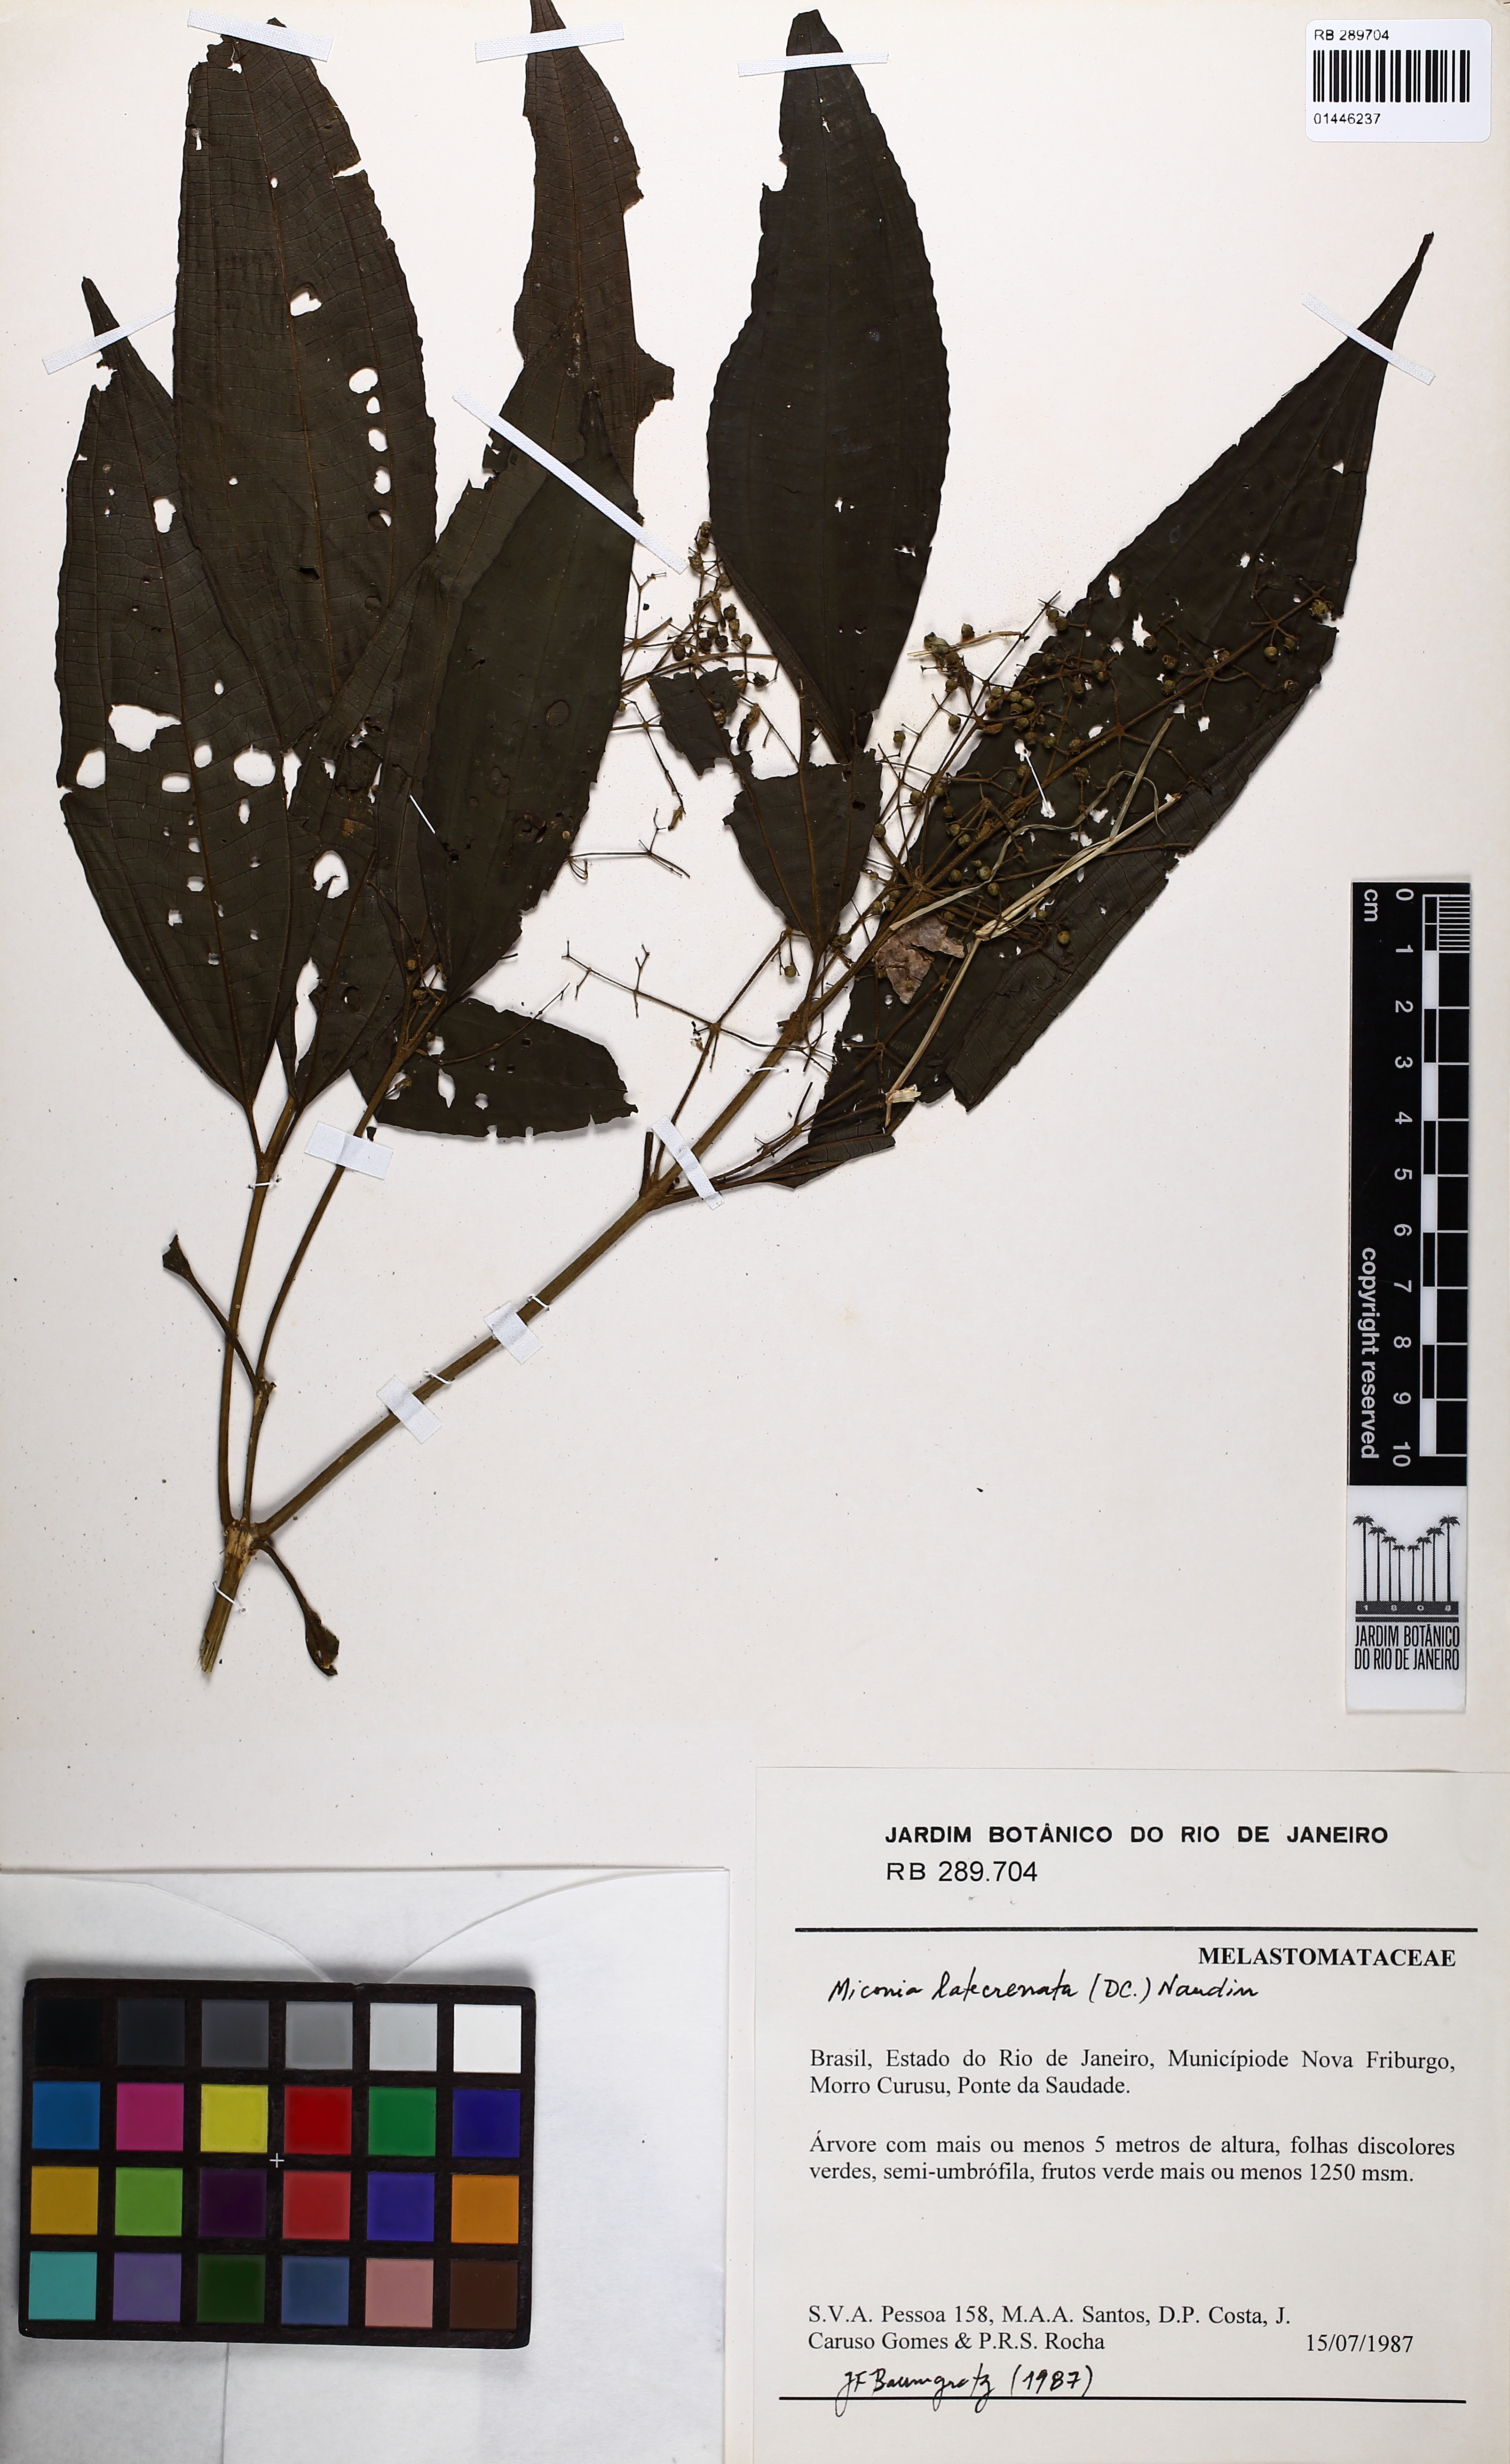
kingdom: Plantae
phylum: Tracheophyta
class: Magnoliopsida
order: Myrtales
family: Melastomataceae
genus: Miconia
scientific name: Miconia latecrenata
